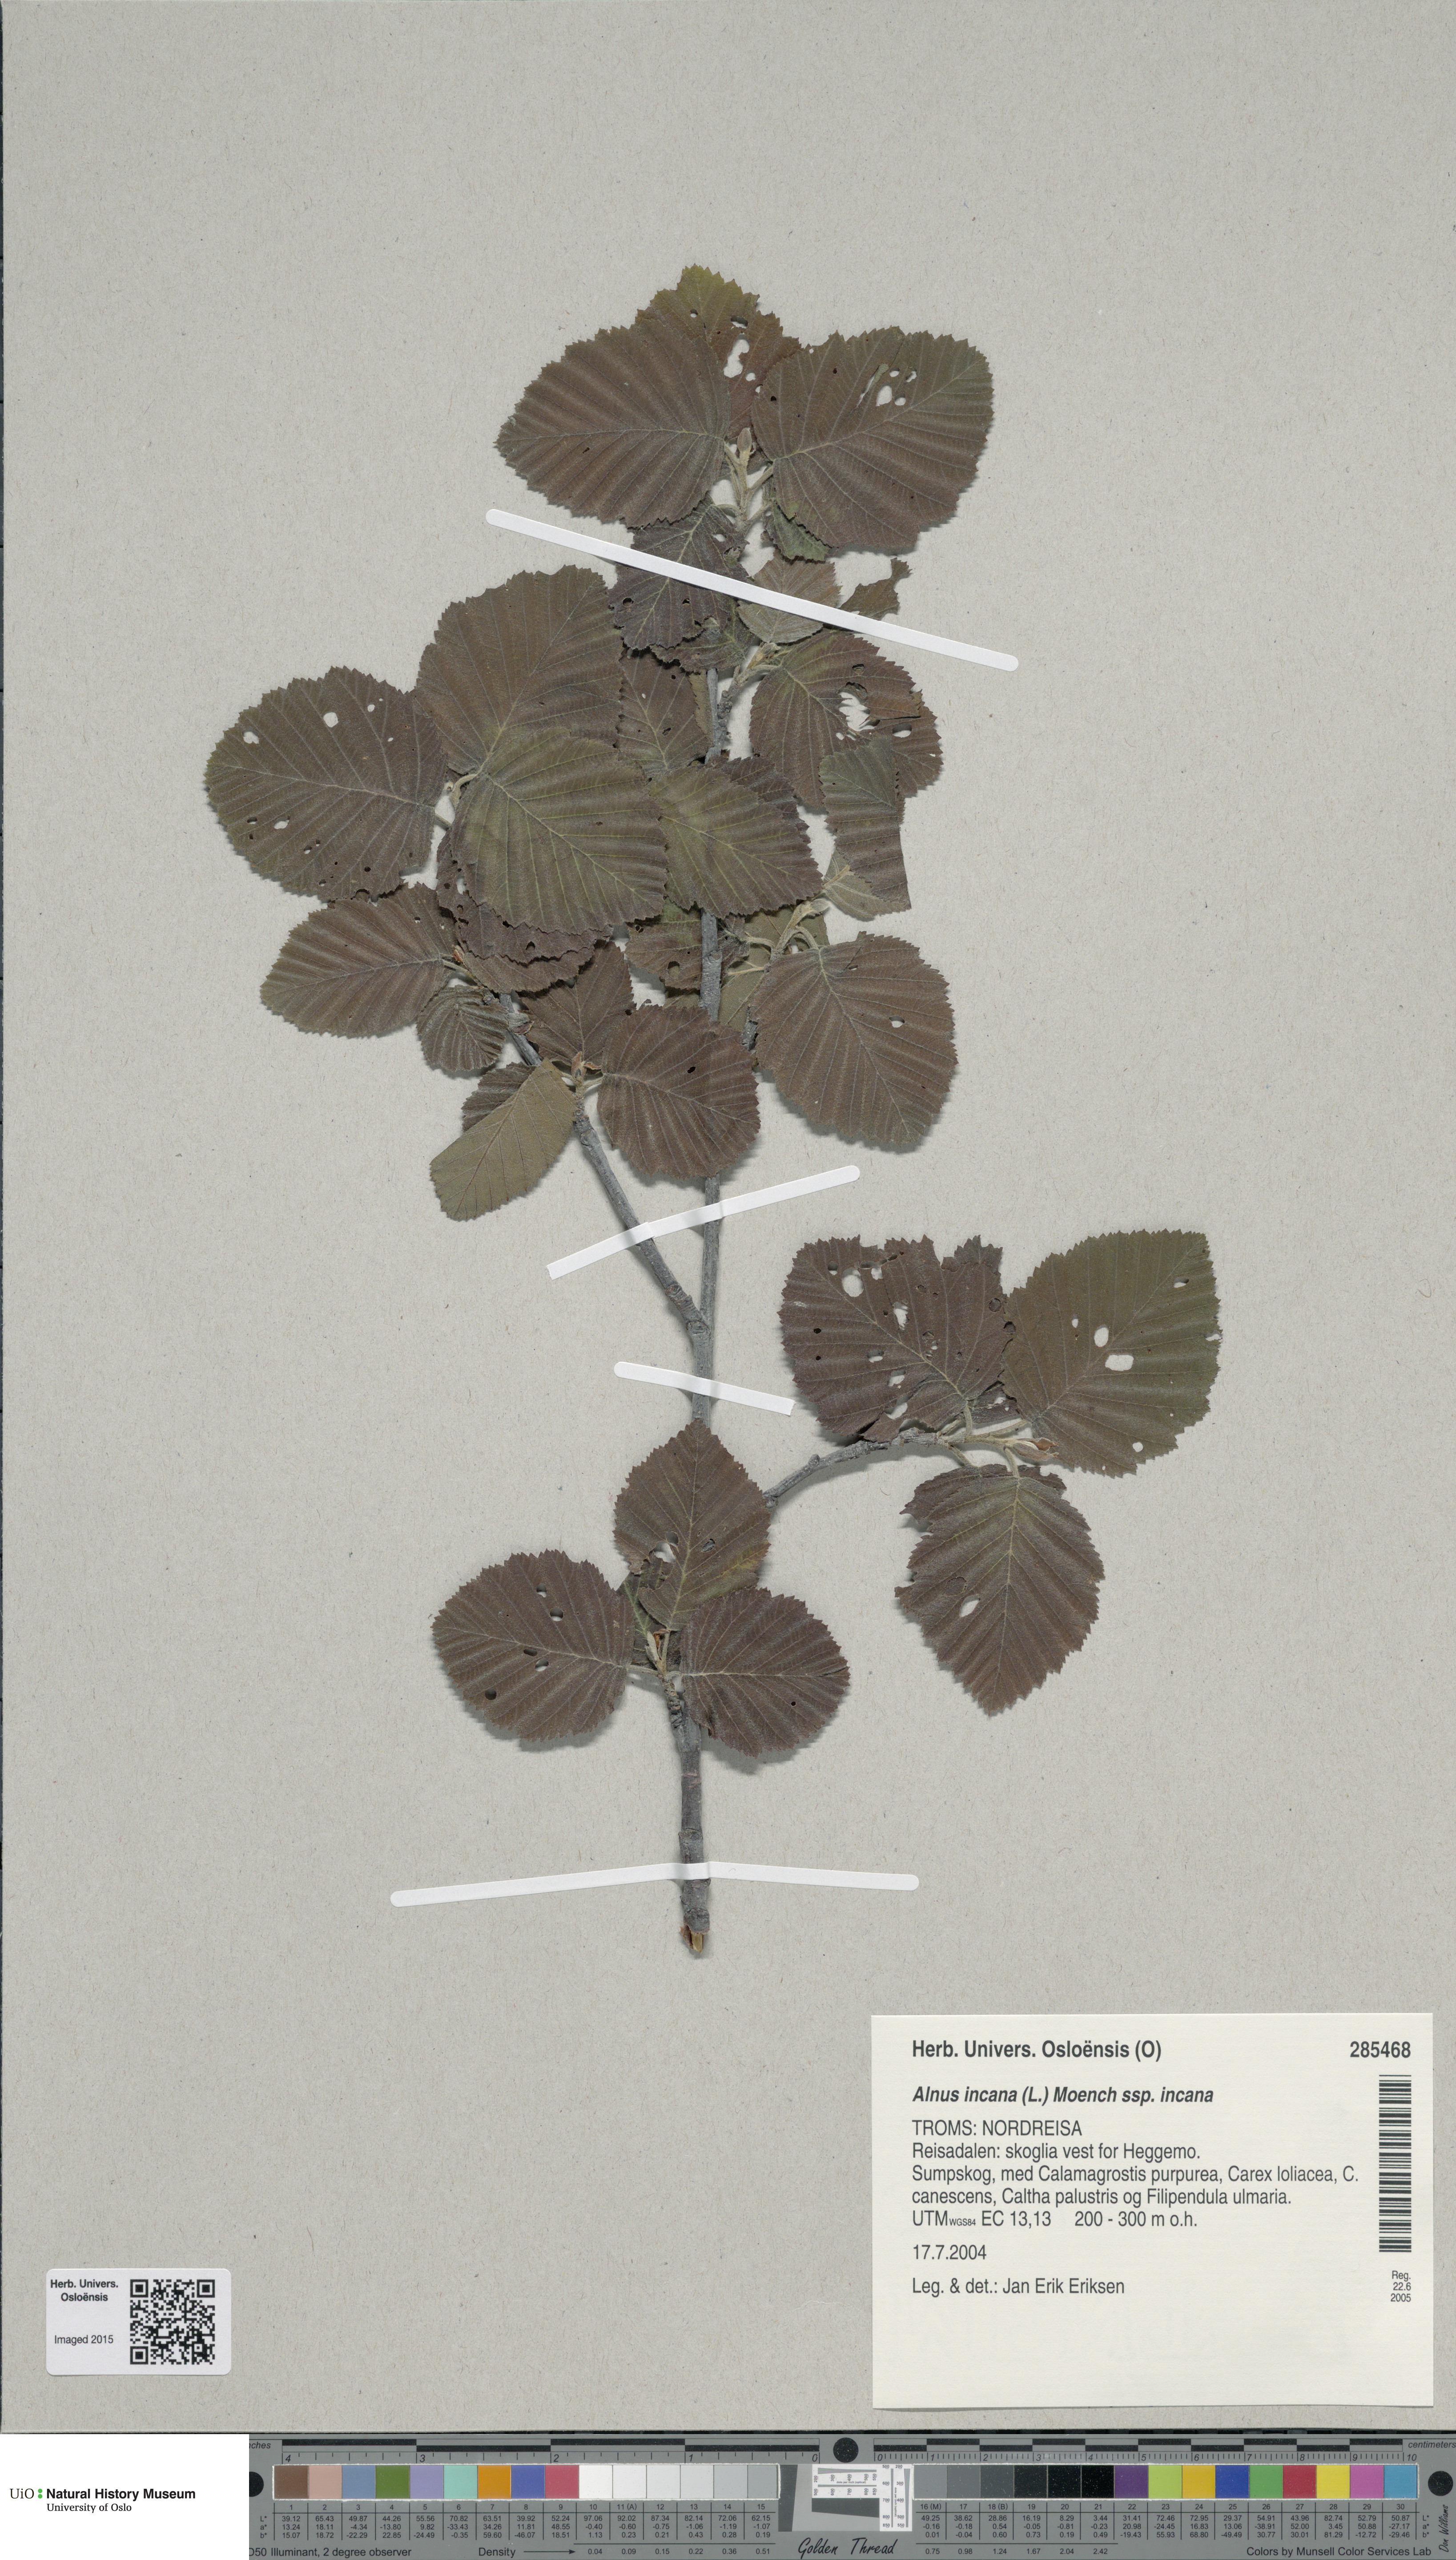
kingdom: Plantae
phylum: Tracheophyta
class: Magnoliopsida
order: Fagales
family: Betulaceae
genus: Alnus
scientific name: Alnus incana
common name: Grey alder
